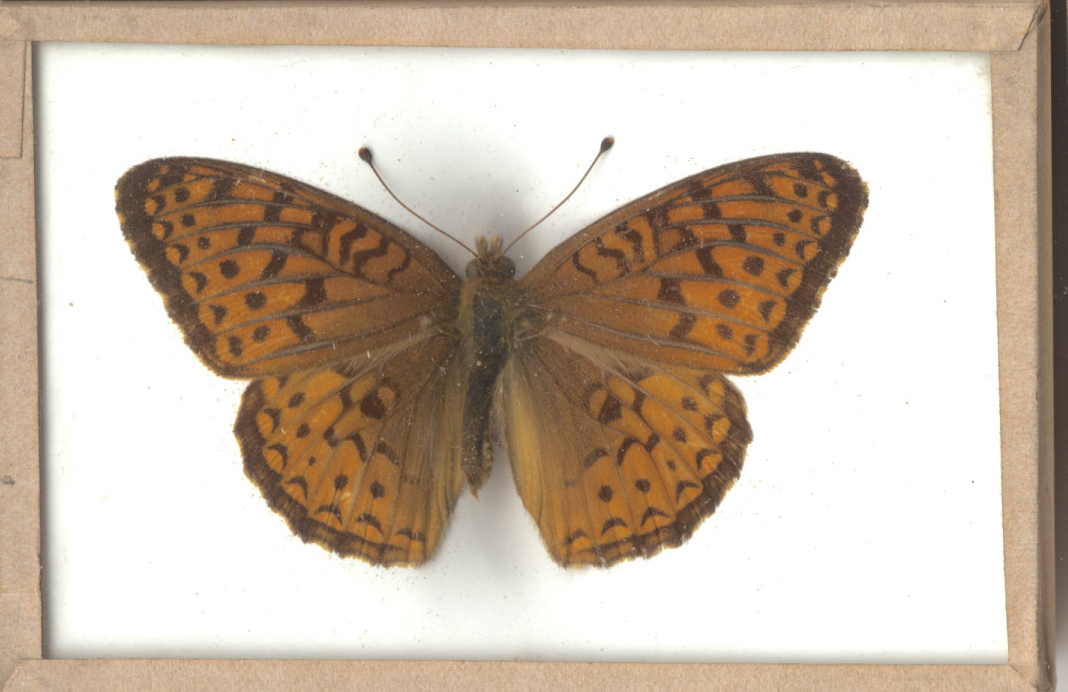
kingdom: Animalia
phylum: Arthropoda
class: Insecta
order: Lepidoptera
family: Nymphalidae
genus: Speyeria
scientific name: Speyeria atlantis
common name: Atlantis Fritillary
